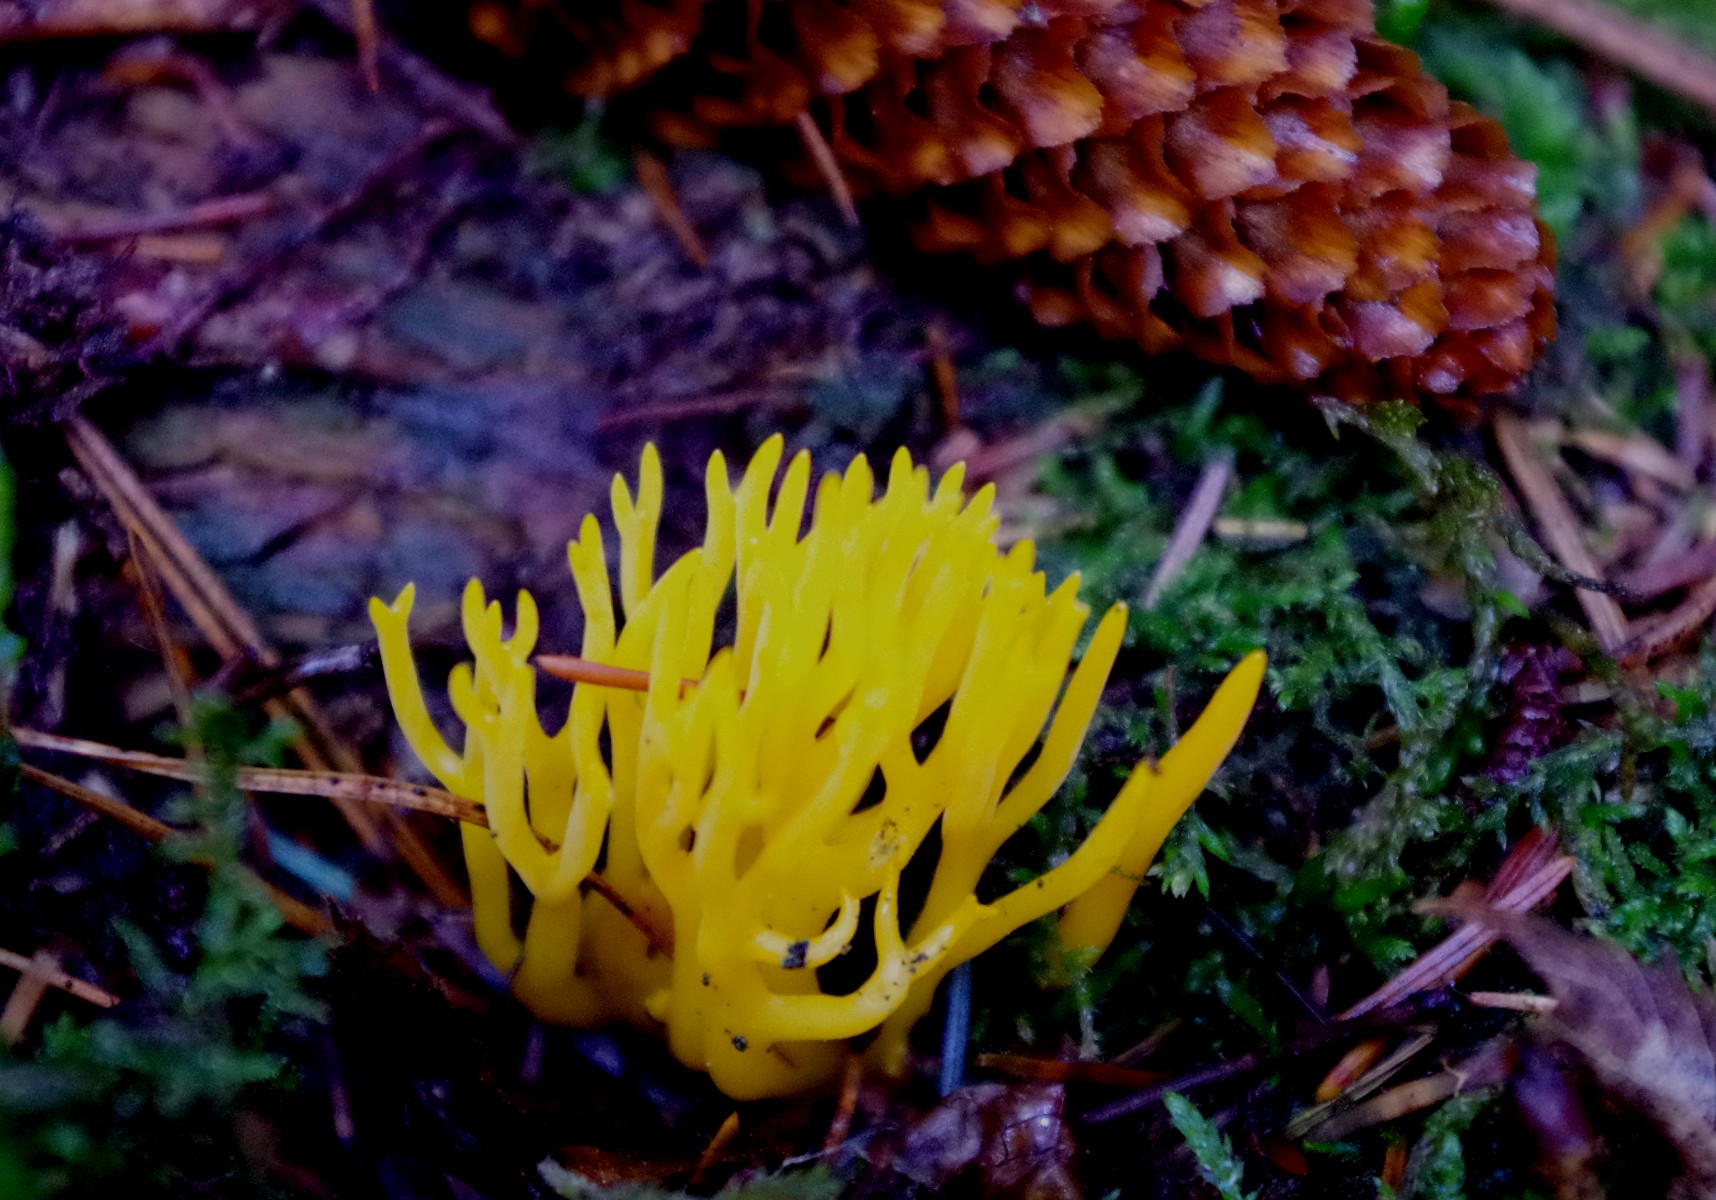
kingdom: Fungi
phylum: Basidiomycota
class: Dacrymycetes
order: Dacrymycetales
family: Dacrymycetaceae
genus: Calocera
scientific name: Calocera viscosa
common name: almindelig guldgaffel
